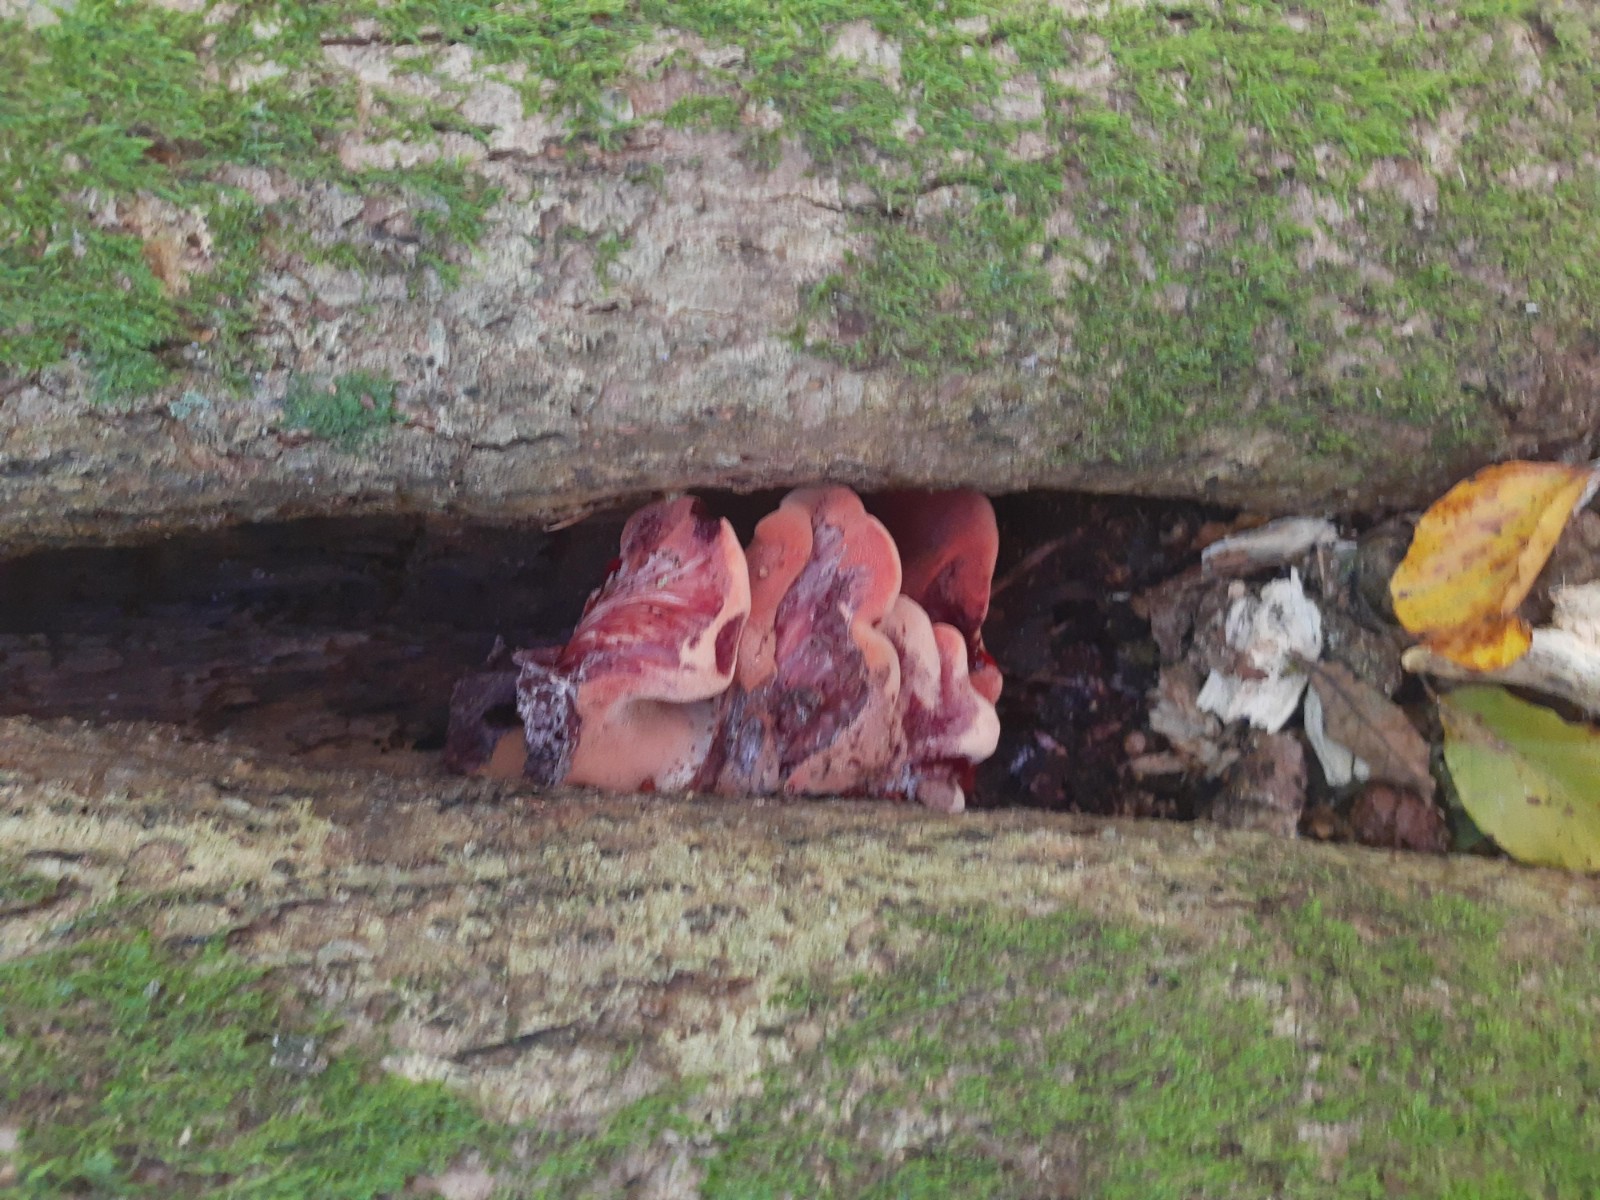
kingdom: Fungi
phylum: Basidiomycota
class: Agaricomycetes
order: Agaricales
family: Fistulinaceae
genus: Fistulina
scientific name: Fistulina hepatica
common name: oksetunge
